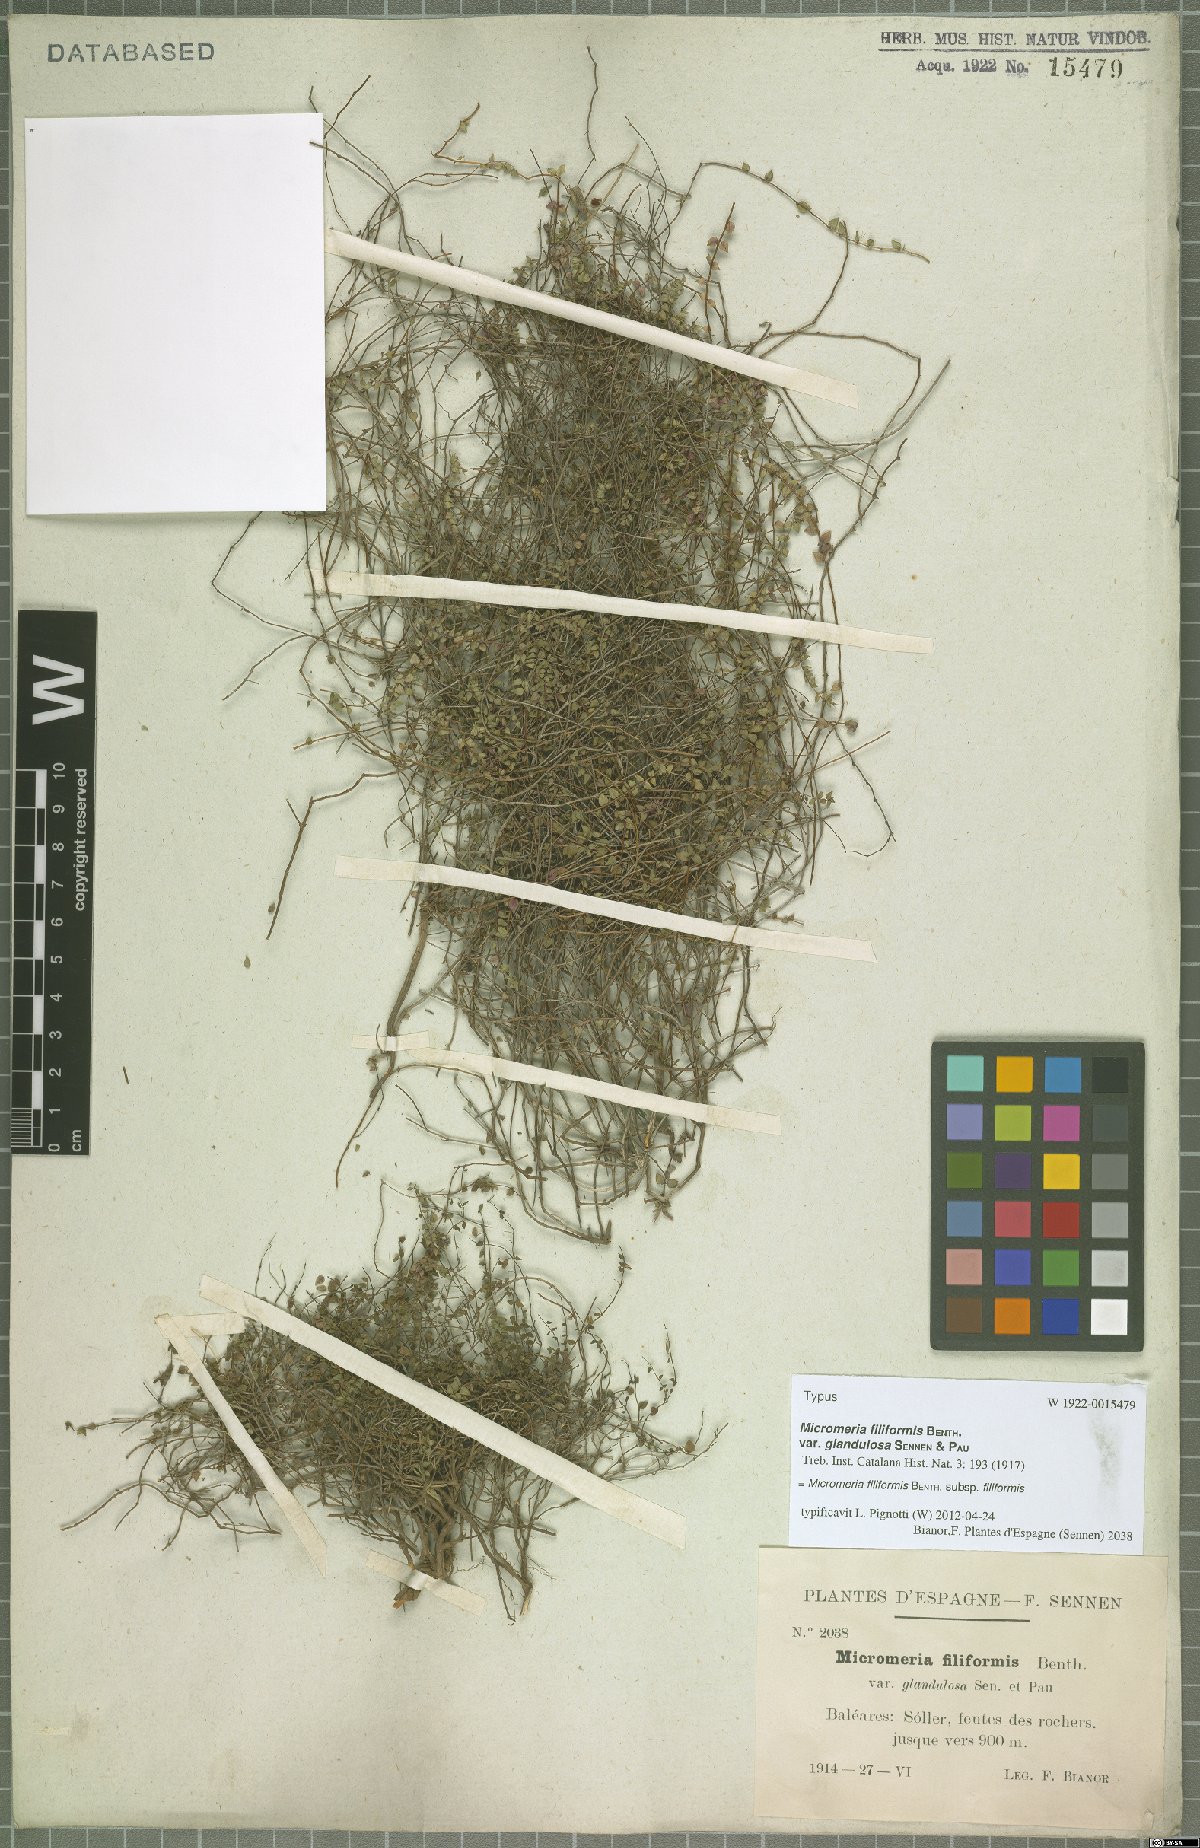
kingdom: Plantae
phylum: Tracheophyta
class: Magnoliopsida
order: Lamiales
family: Lamiaceae
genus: Micromeria
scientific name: Micromeria filiformis
